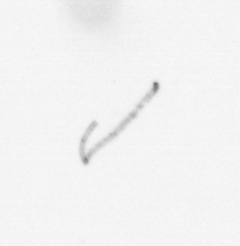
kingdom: Chromista
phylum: Ochrophyta
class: Bacillariophyceae
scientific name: Bacillariophyceae
